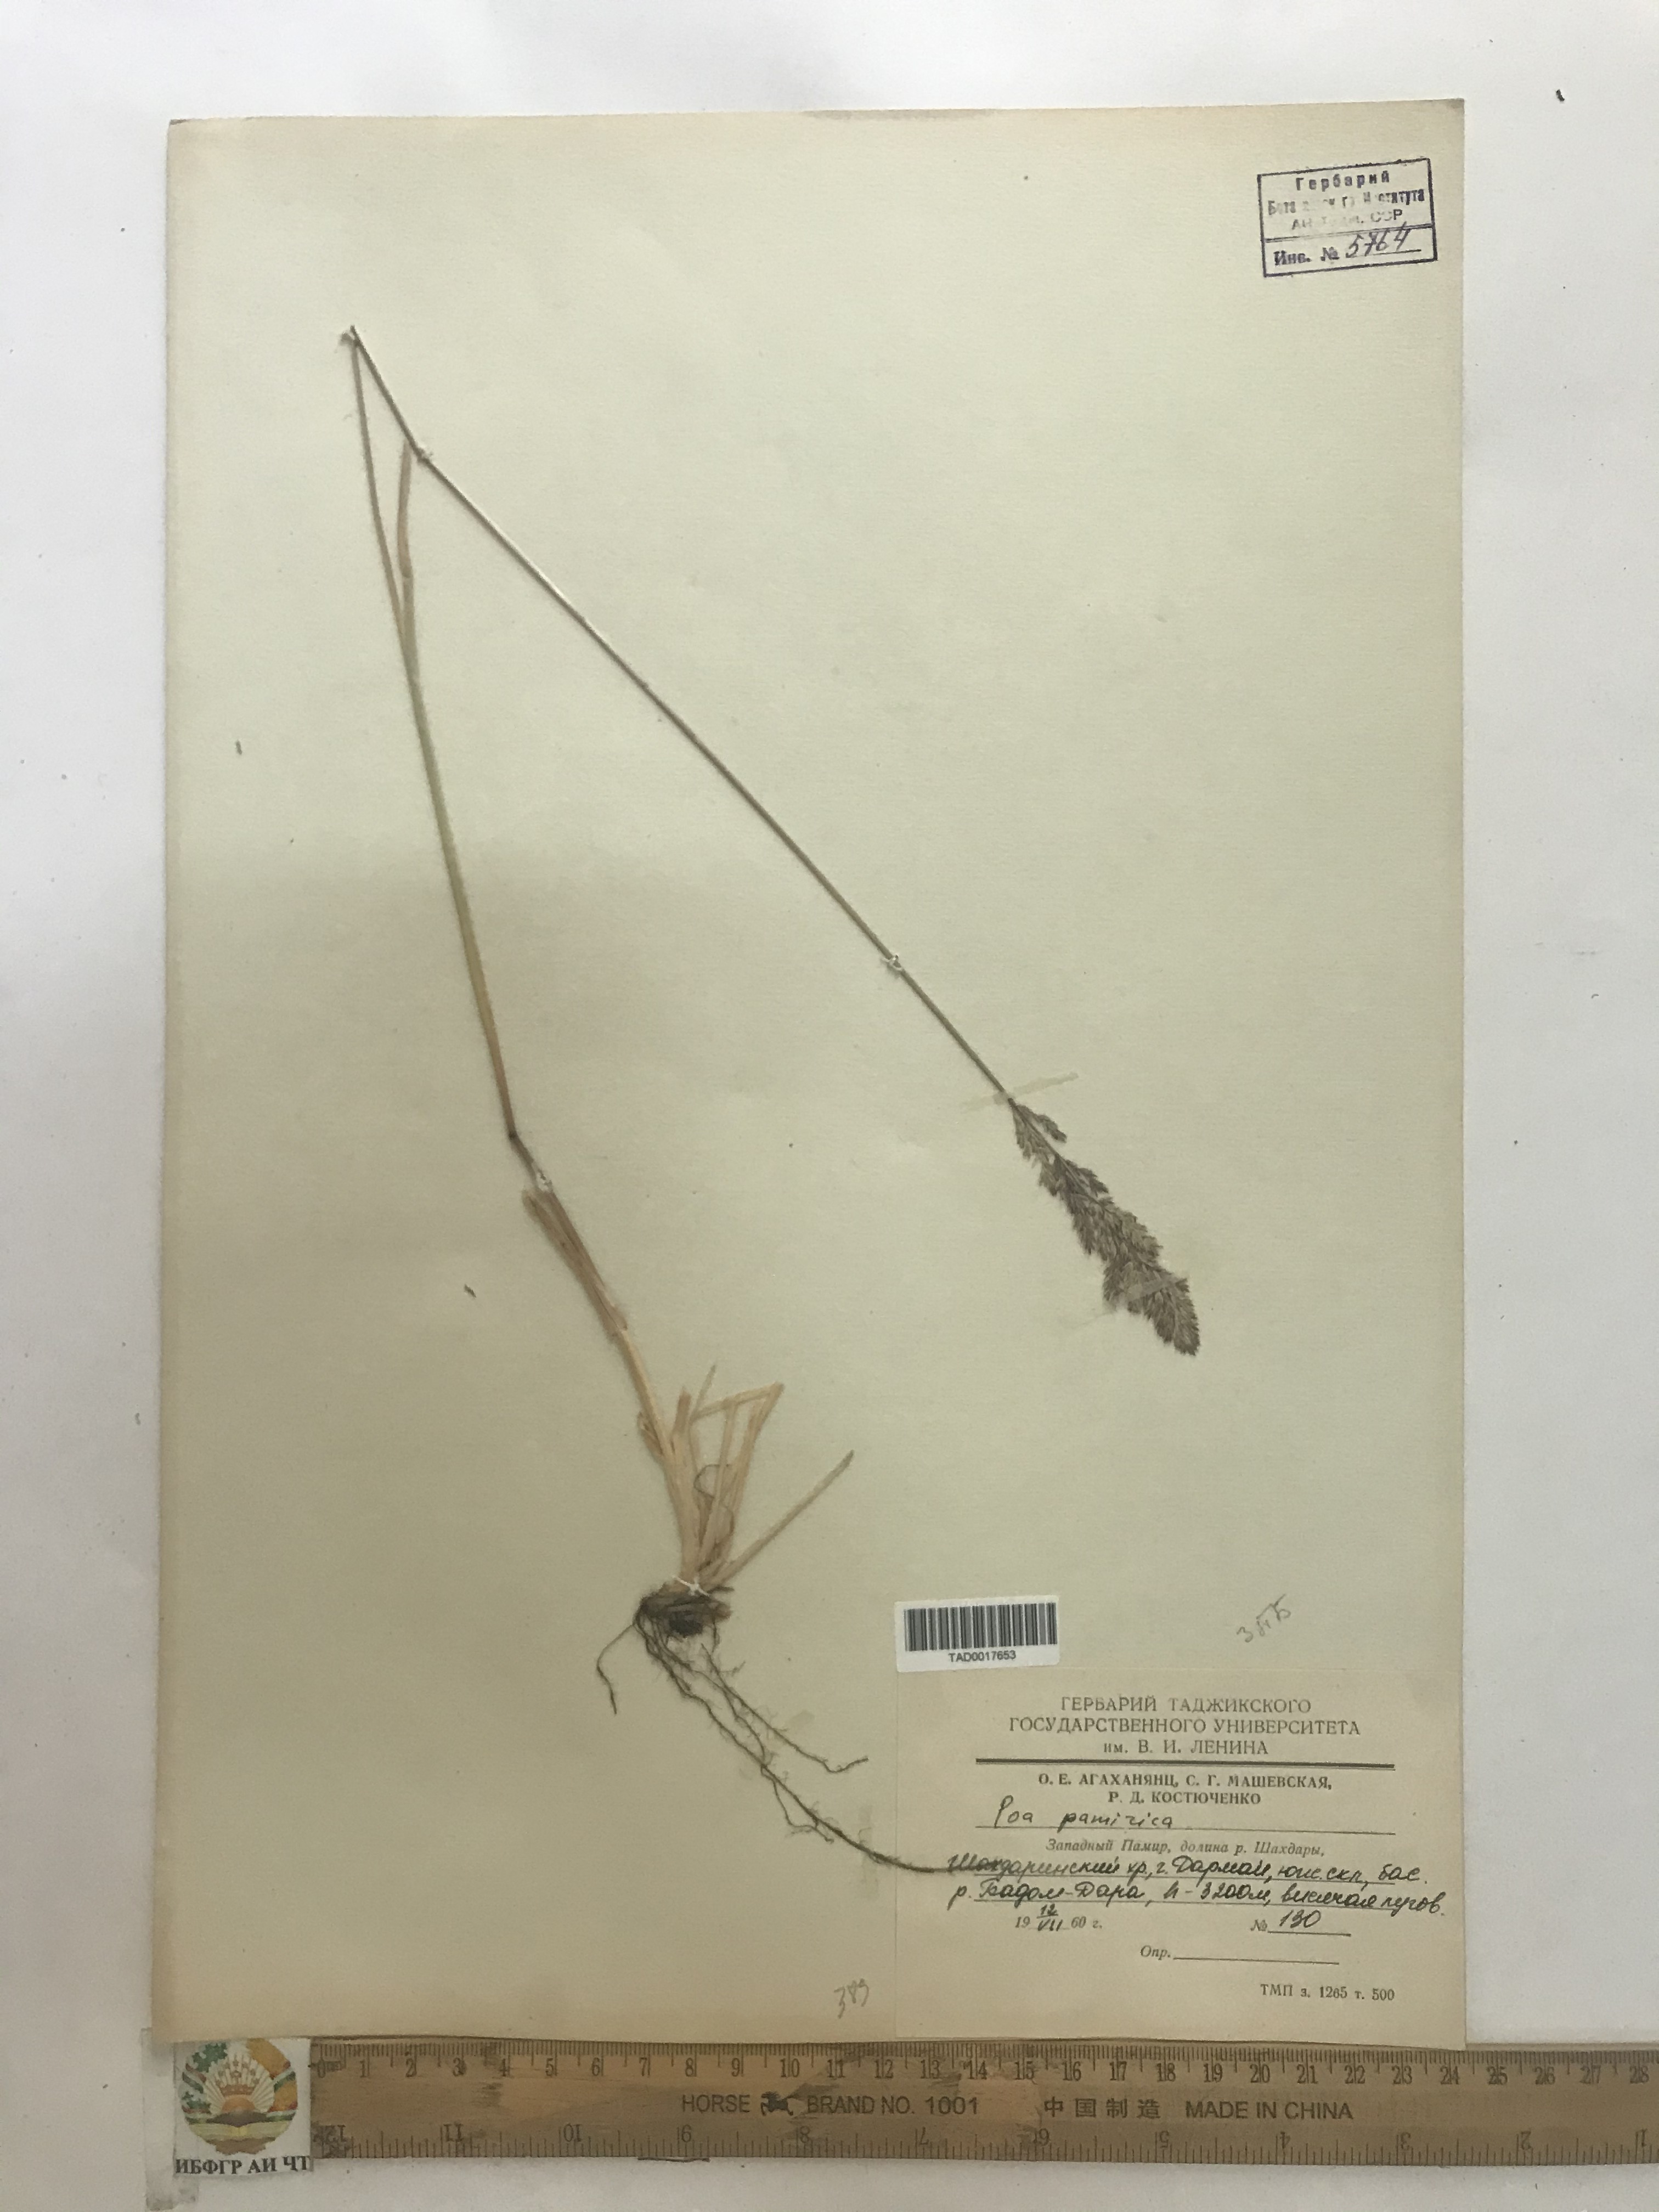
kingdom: Plantae
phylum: Tracheophyta
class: Liliopsida
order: Poales
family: Poaceae
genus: Poa
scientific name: Poa glauca
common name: Glaucous bluegrass
